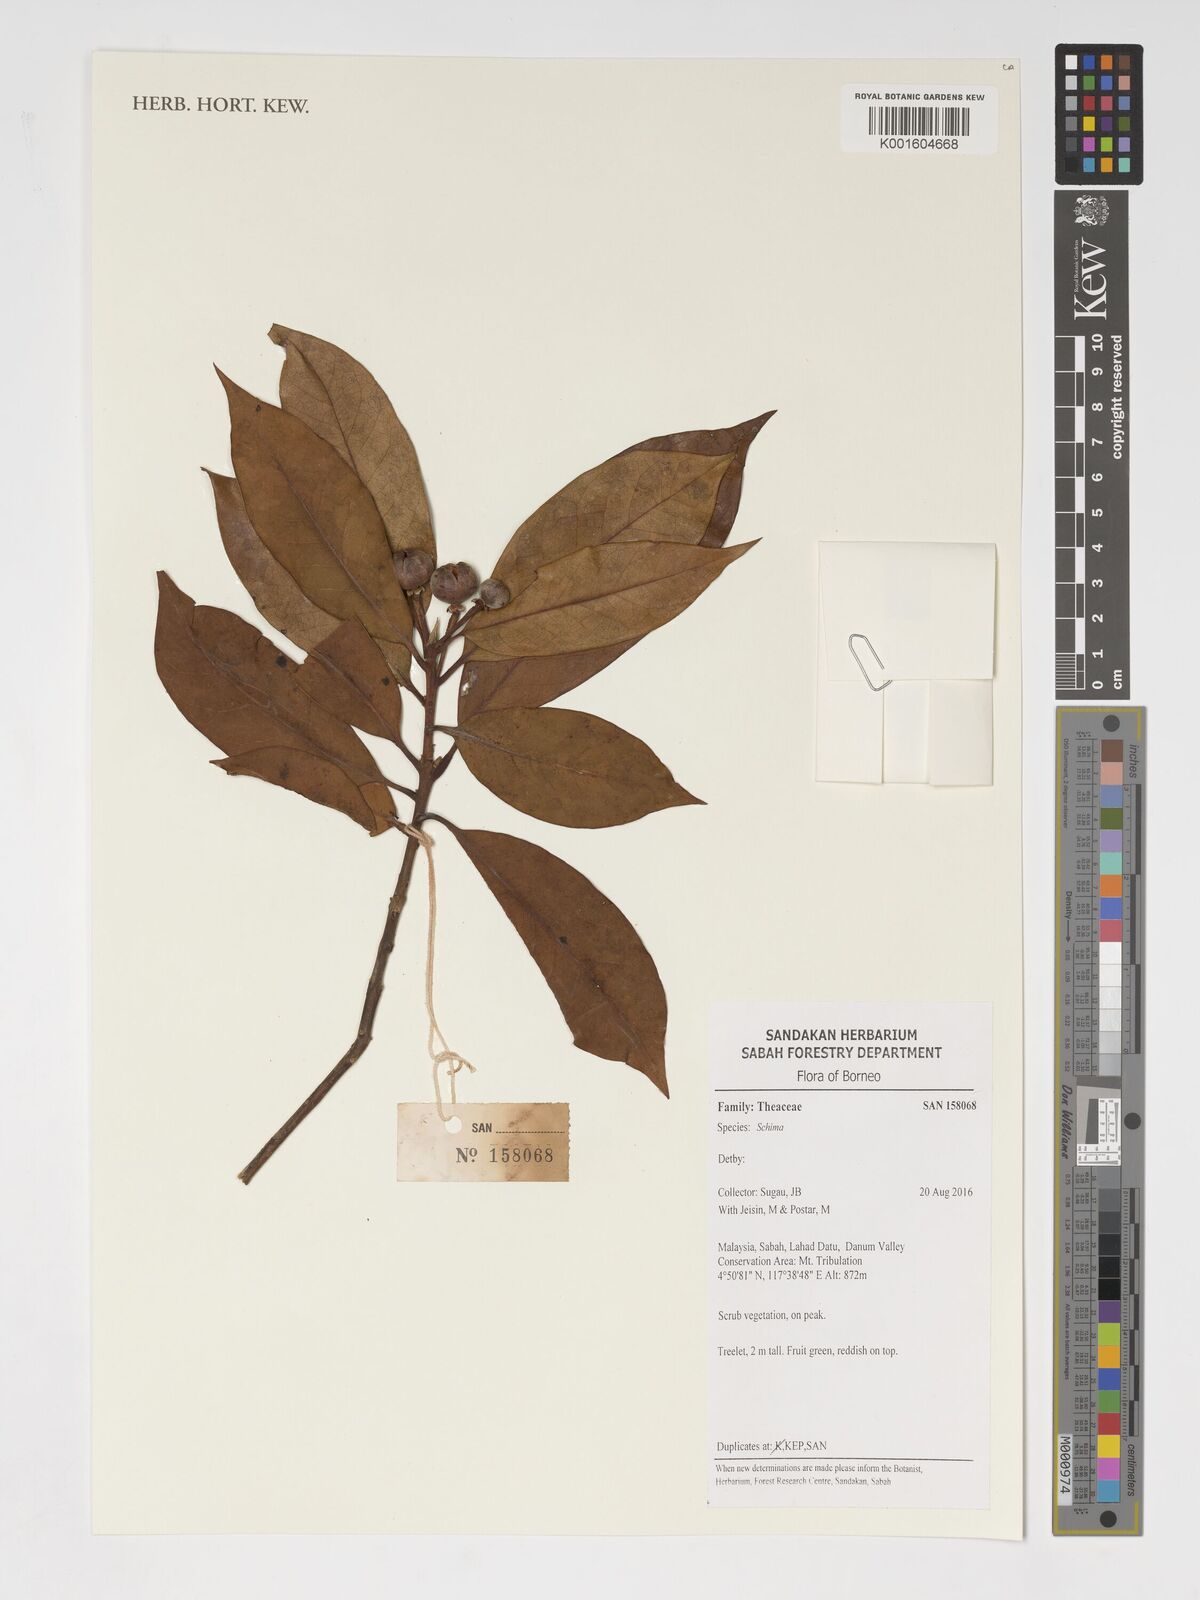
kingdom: Plantae
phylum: Tracheophyta
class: Magnoliopsida
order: Ericales
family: Theaceae
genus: Schima
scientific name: Schima
